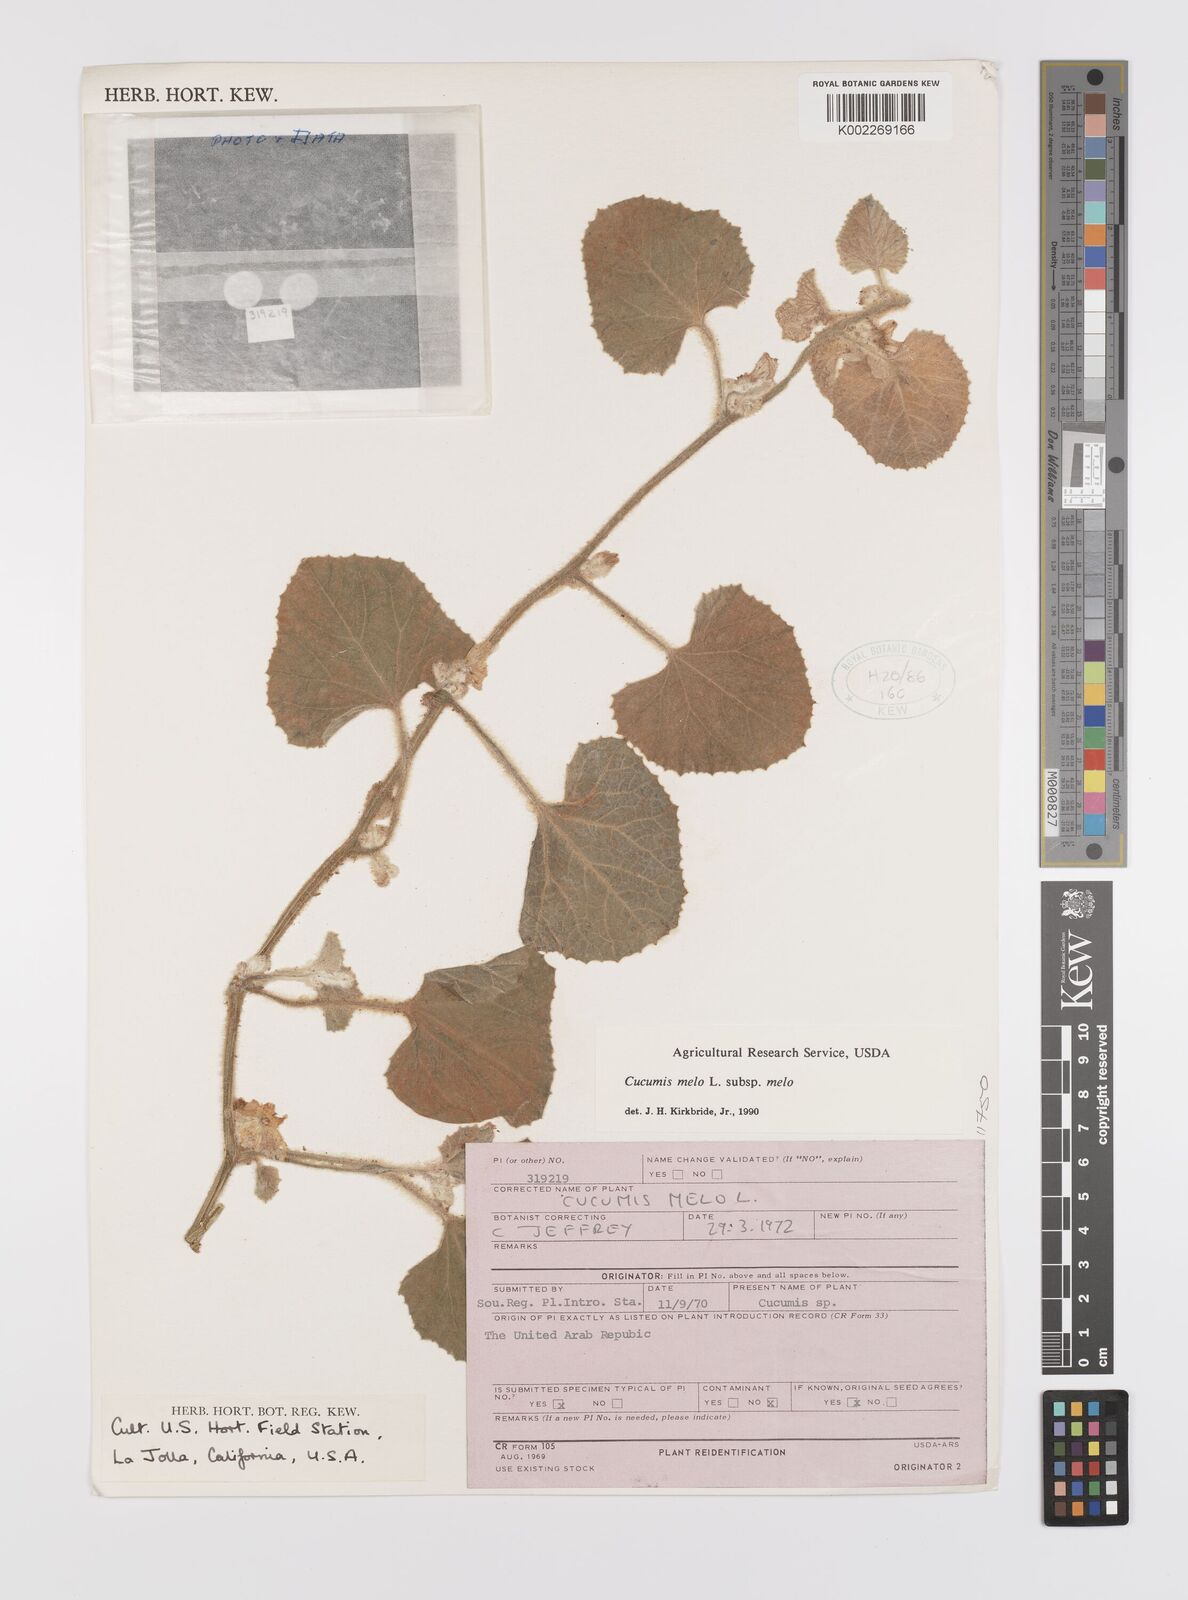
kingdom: Plantae
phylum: Tracheophyta
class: Magnoliopsida
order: Cucurbitales
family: Cucurbitaceae
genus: Cucumis
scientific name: Cucumis melo
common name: Melon
